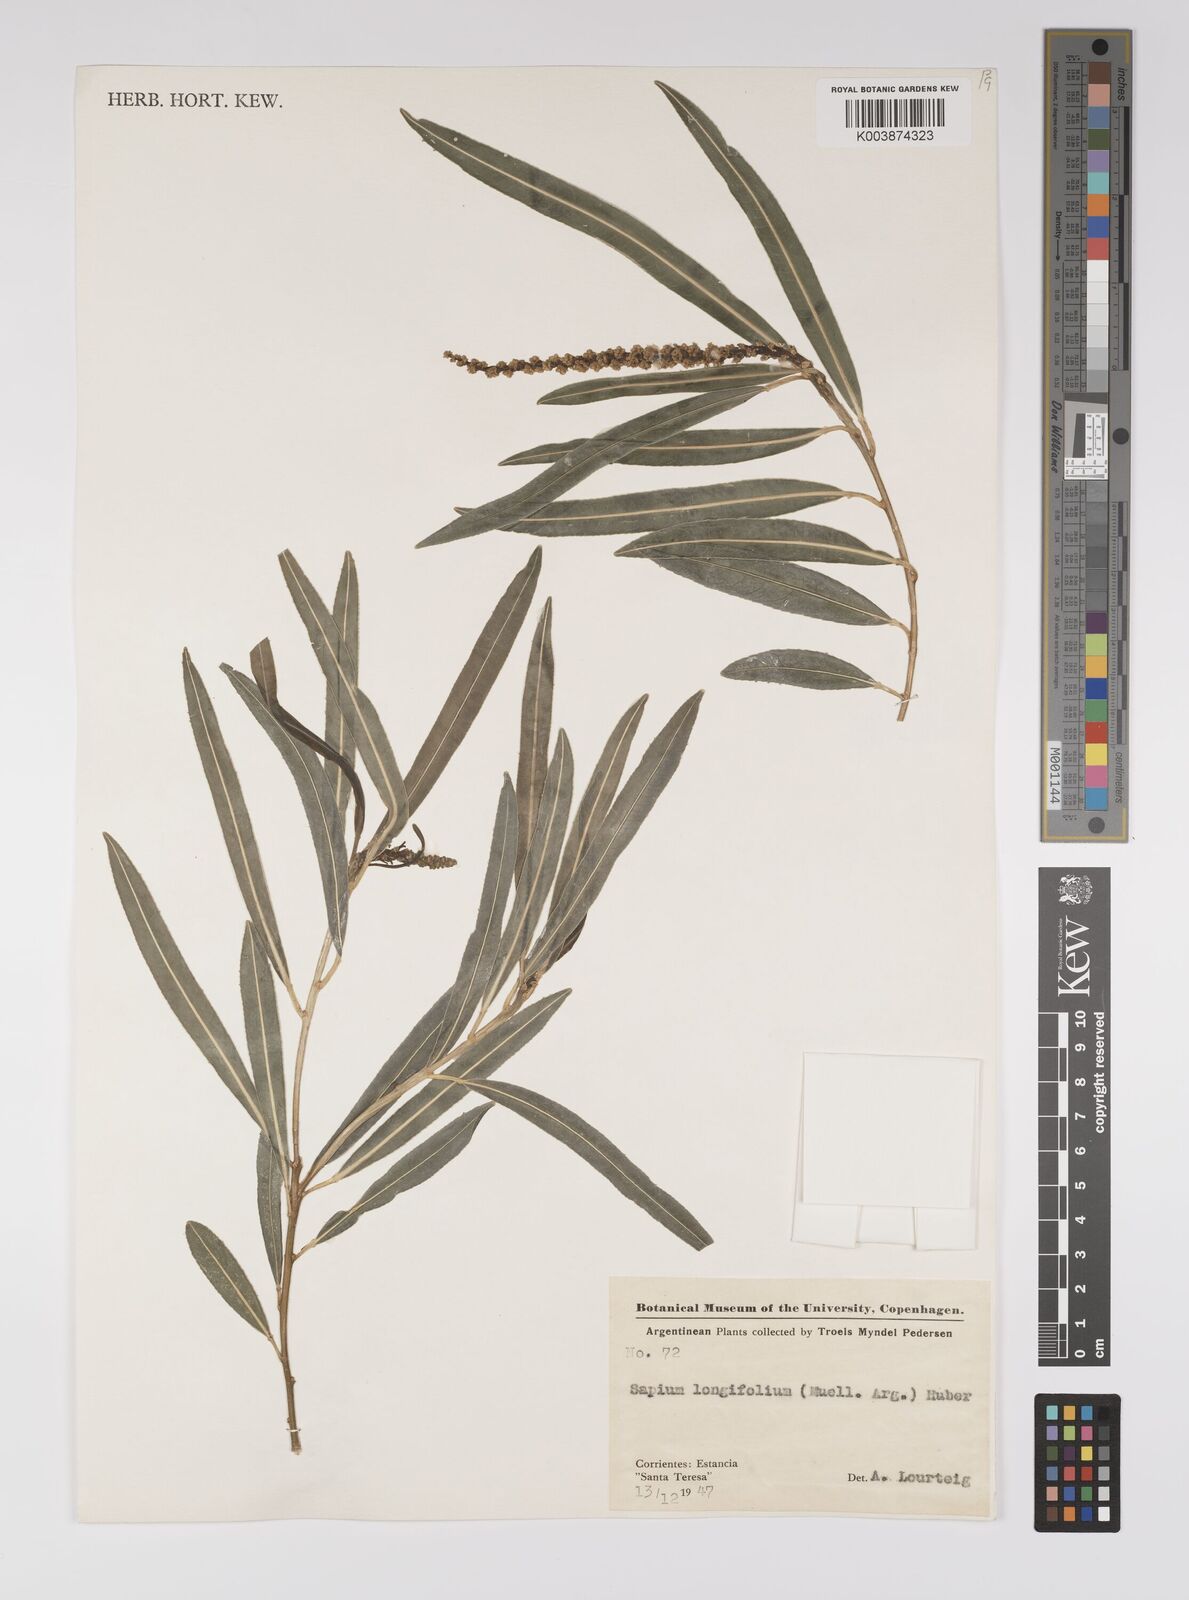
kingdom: Plantae
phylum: Tracheophyta
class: Magnoliopsida
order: Malpighiales
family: Euphorbiaceae
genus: Sapium
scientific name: Sapium haematospermum
